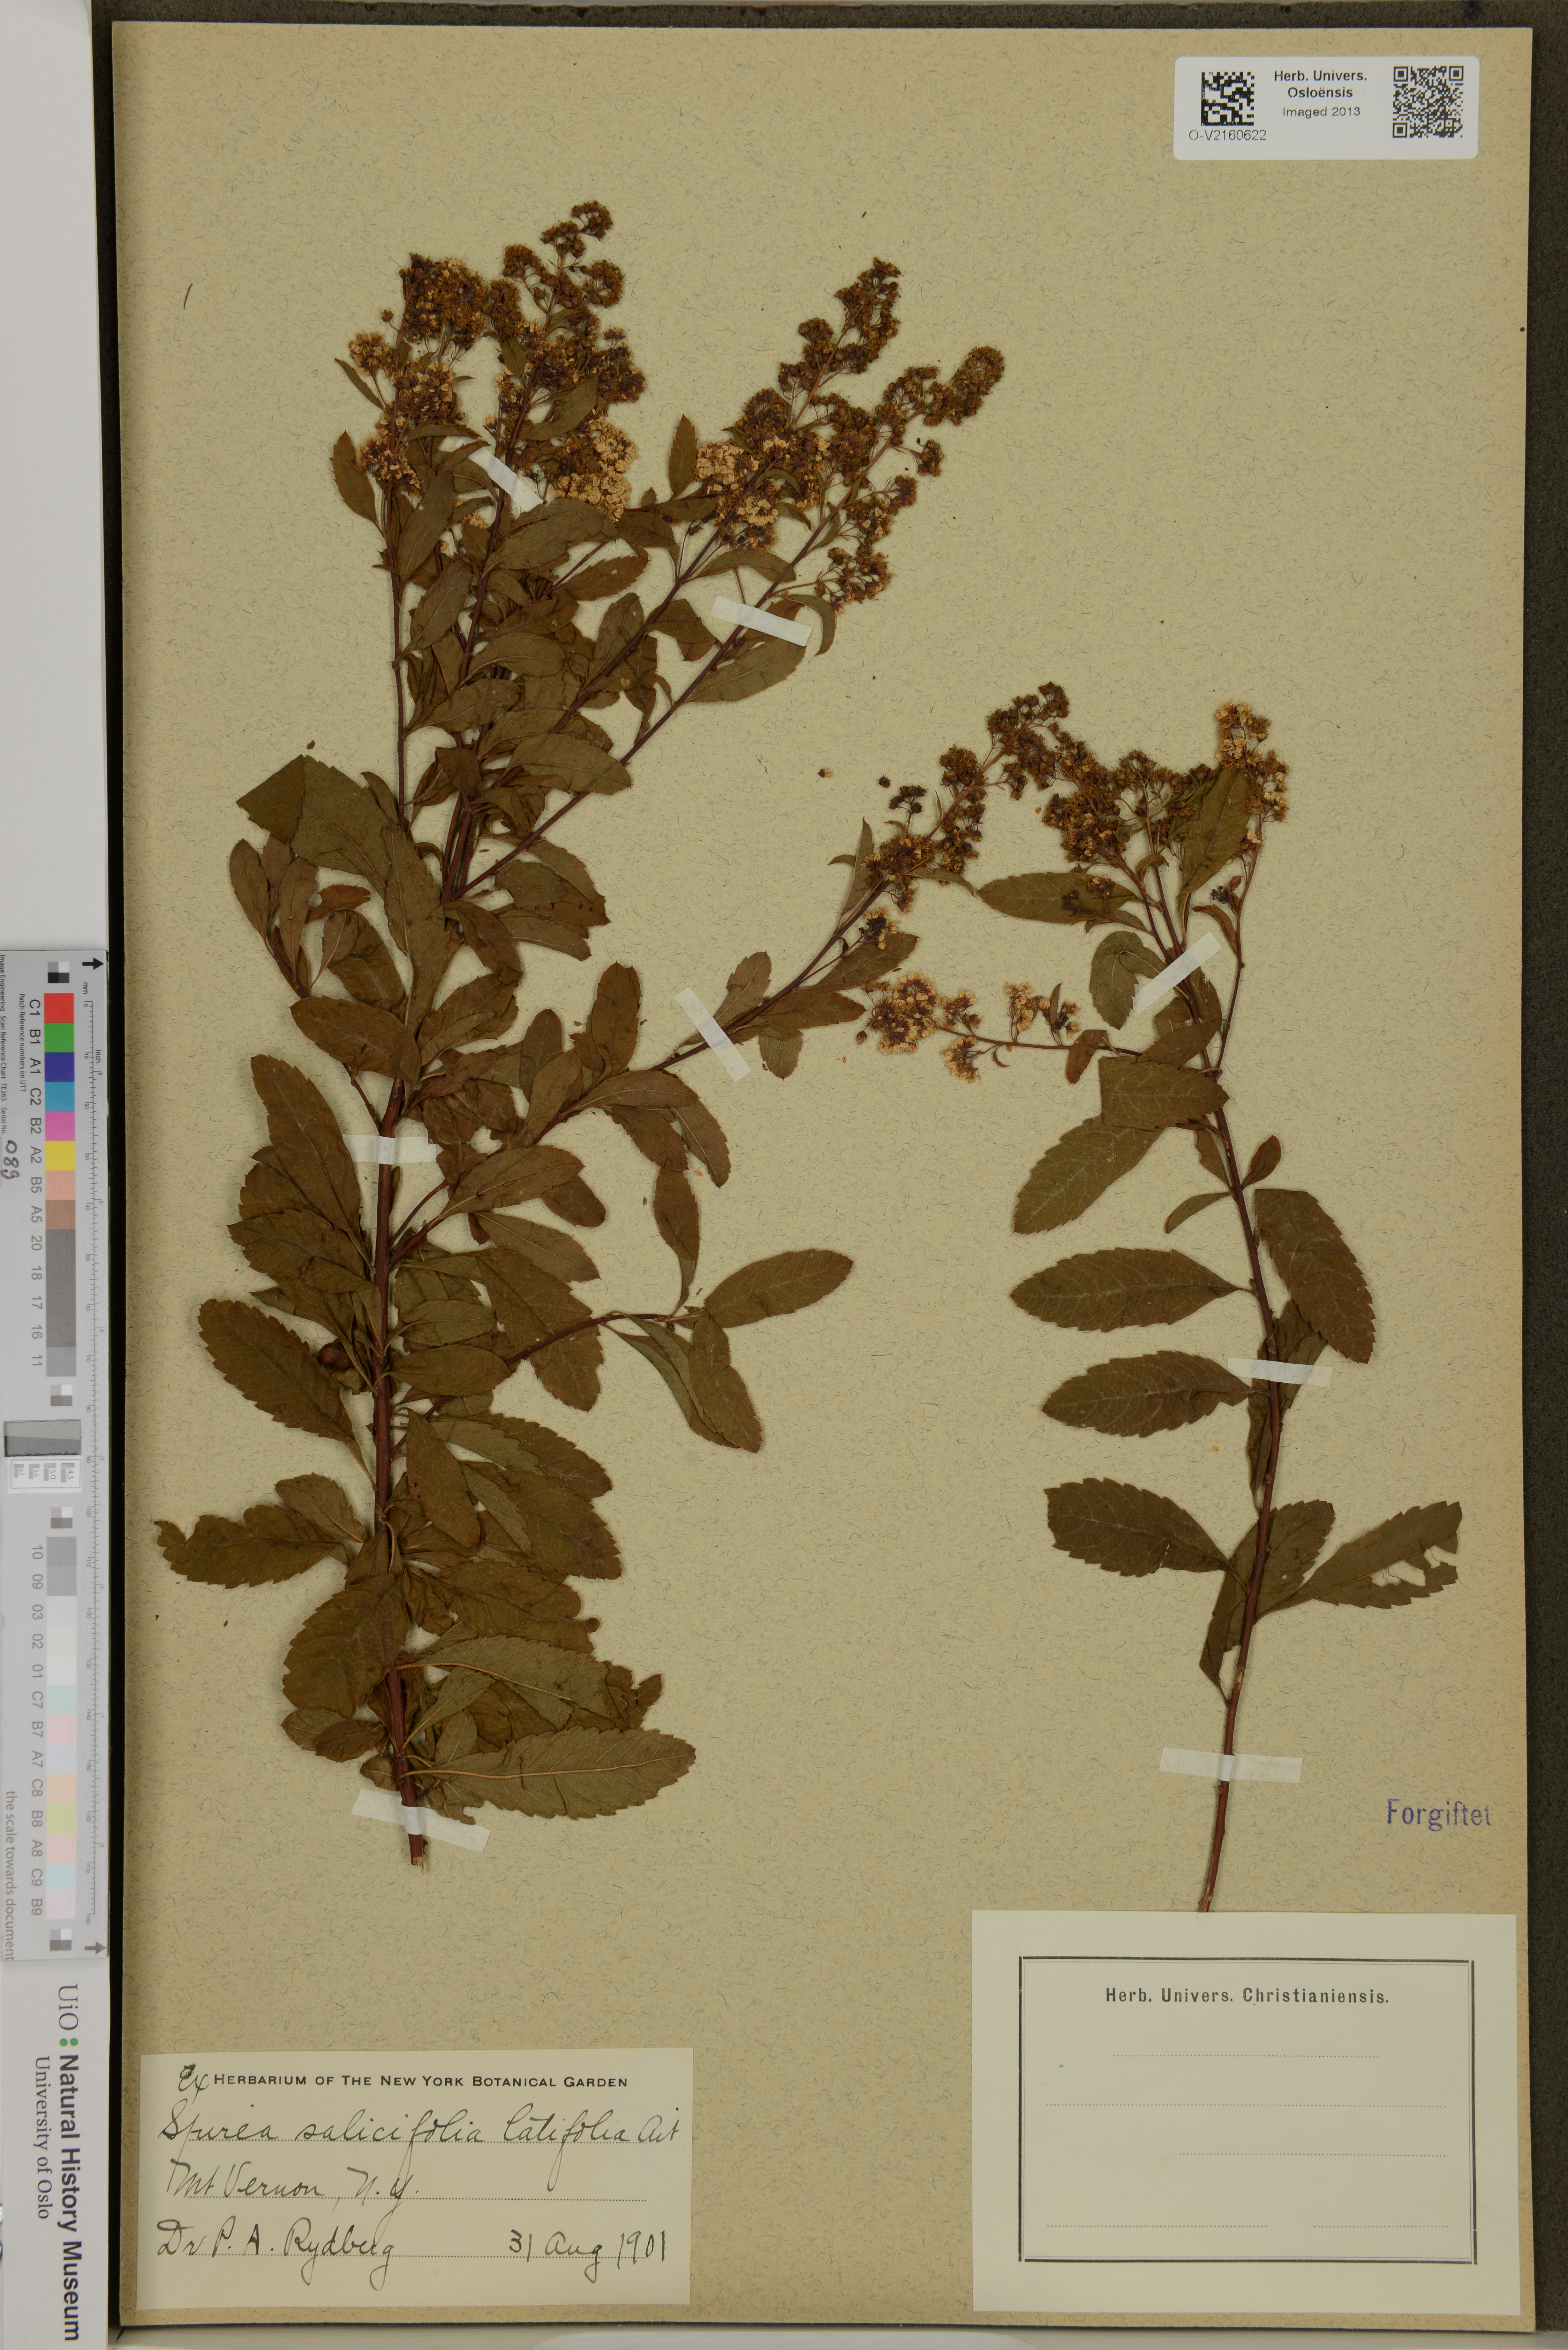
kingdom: Plantae
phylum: Tracheophyta
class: Magnoliopsida
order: Rosales
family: Rosaceae
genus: Spiraea
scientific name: Spiraea salicifolia
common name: Bridewort
